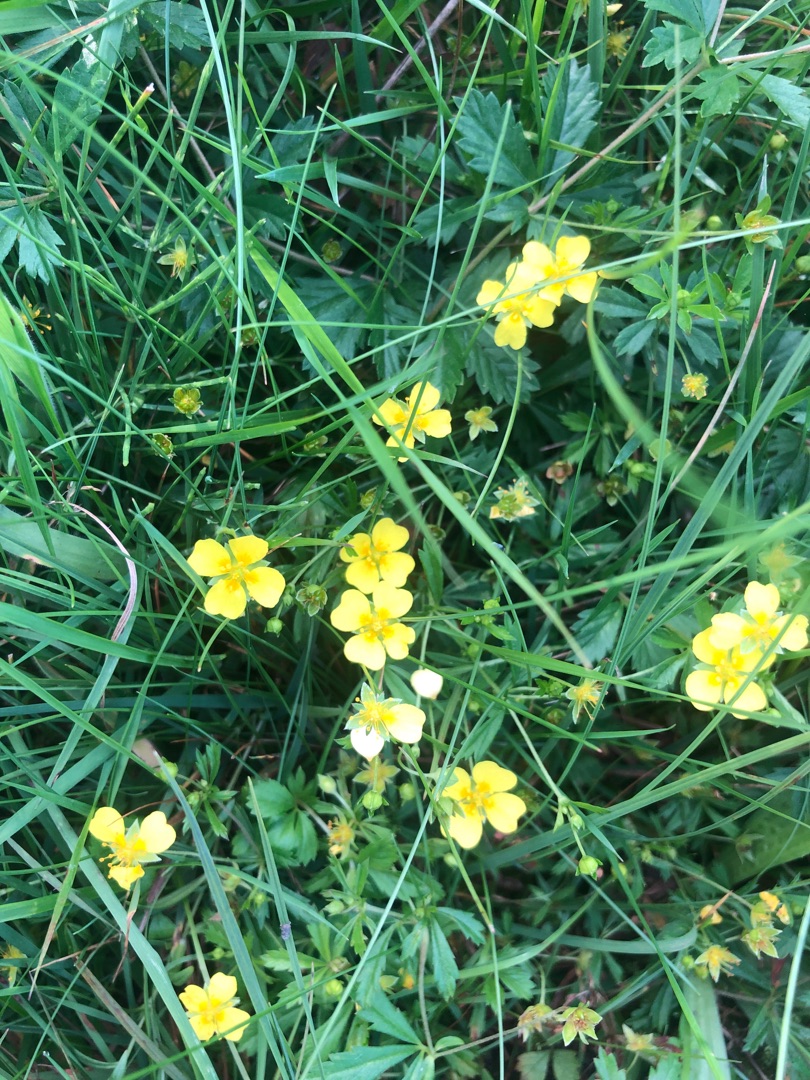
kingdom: Plantae
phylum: Tracheophyta
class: Magnoliopsida
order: Rosales
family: Rosaceae
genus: Potentilla
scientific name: Potentilla erecta
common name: Tormentil
